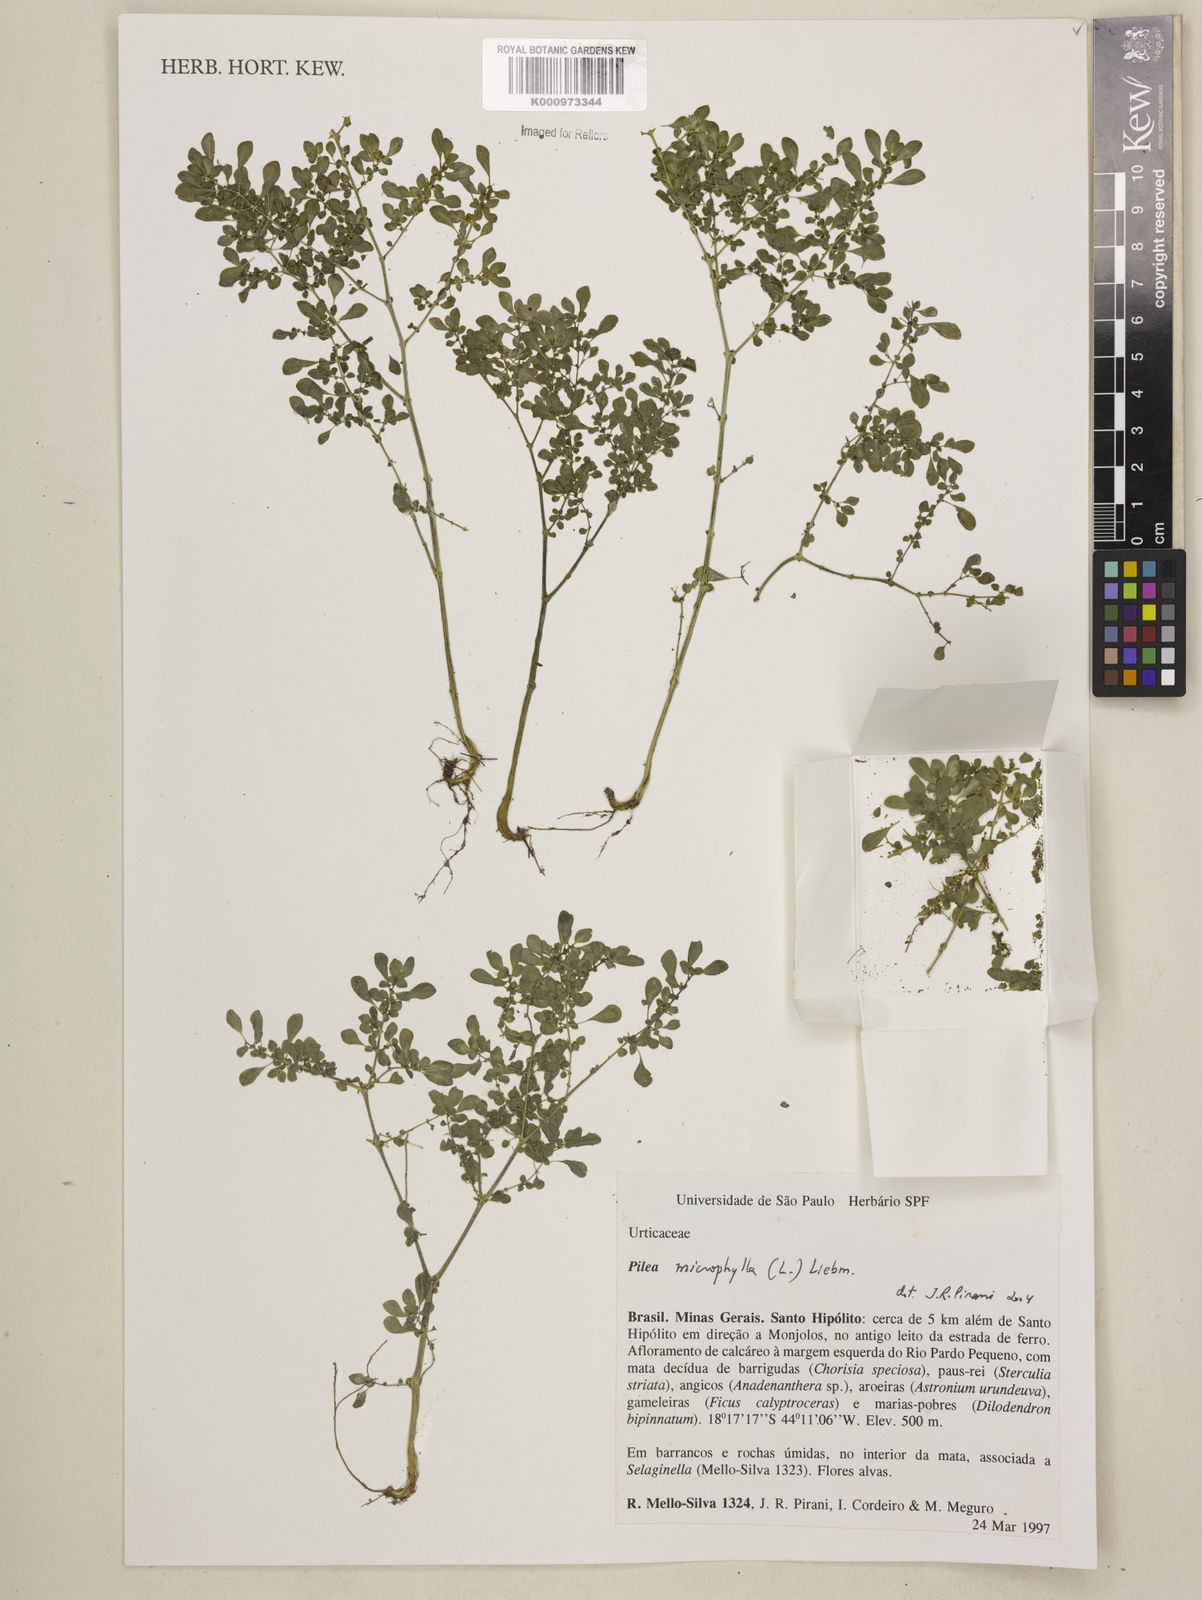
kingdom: Plantae
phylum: Tracheophyta
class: Magnoliopsida
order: Rosales
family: Urticaceae
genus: Pilea
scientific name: Pilea microphylla
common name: Artillery-plant
